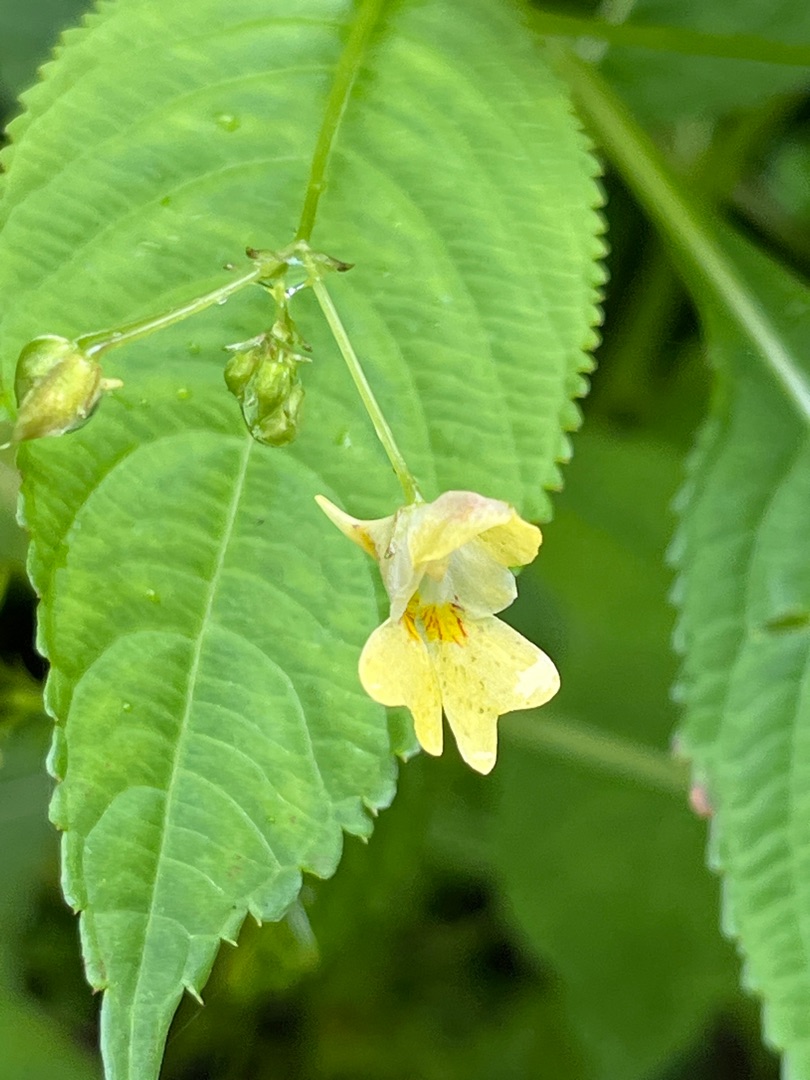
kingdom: Plantae
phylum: Tracheophyta
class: Magnoliopsida
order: Ericales
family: Balsaminaceae
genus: Impatiens
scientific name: Impatiens parviflora
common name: Småblomstret balsamin
